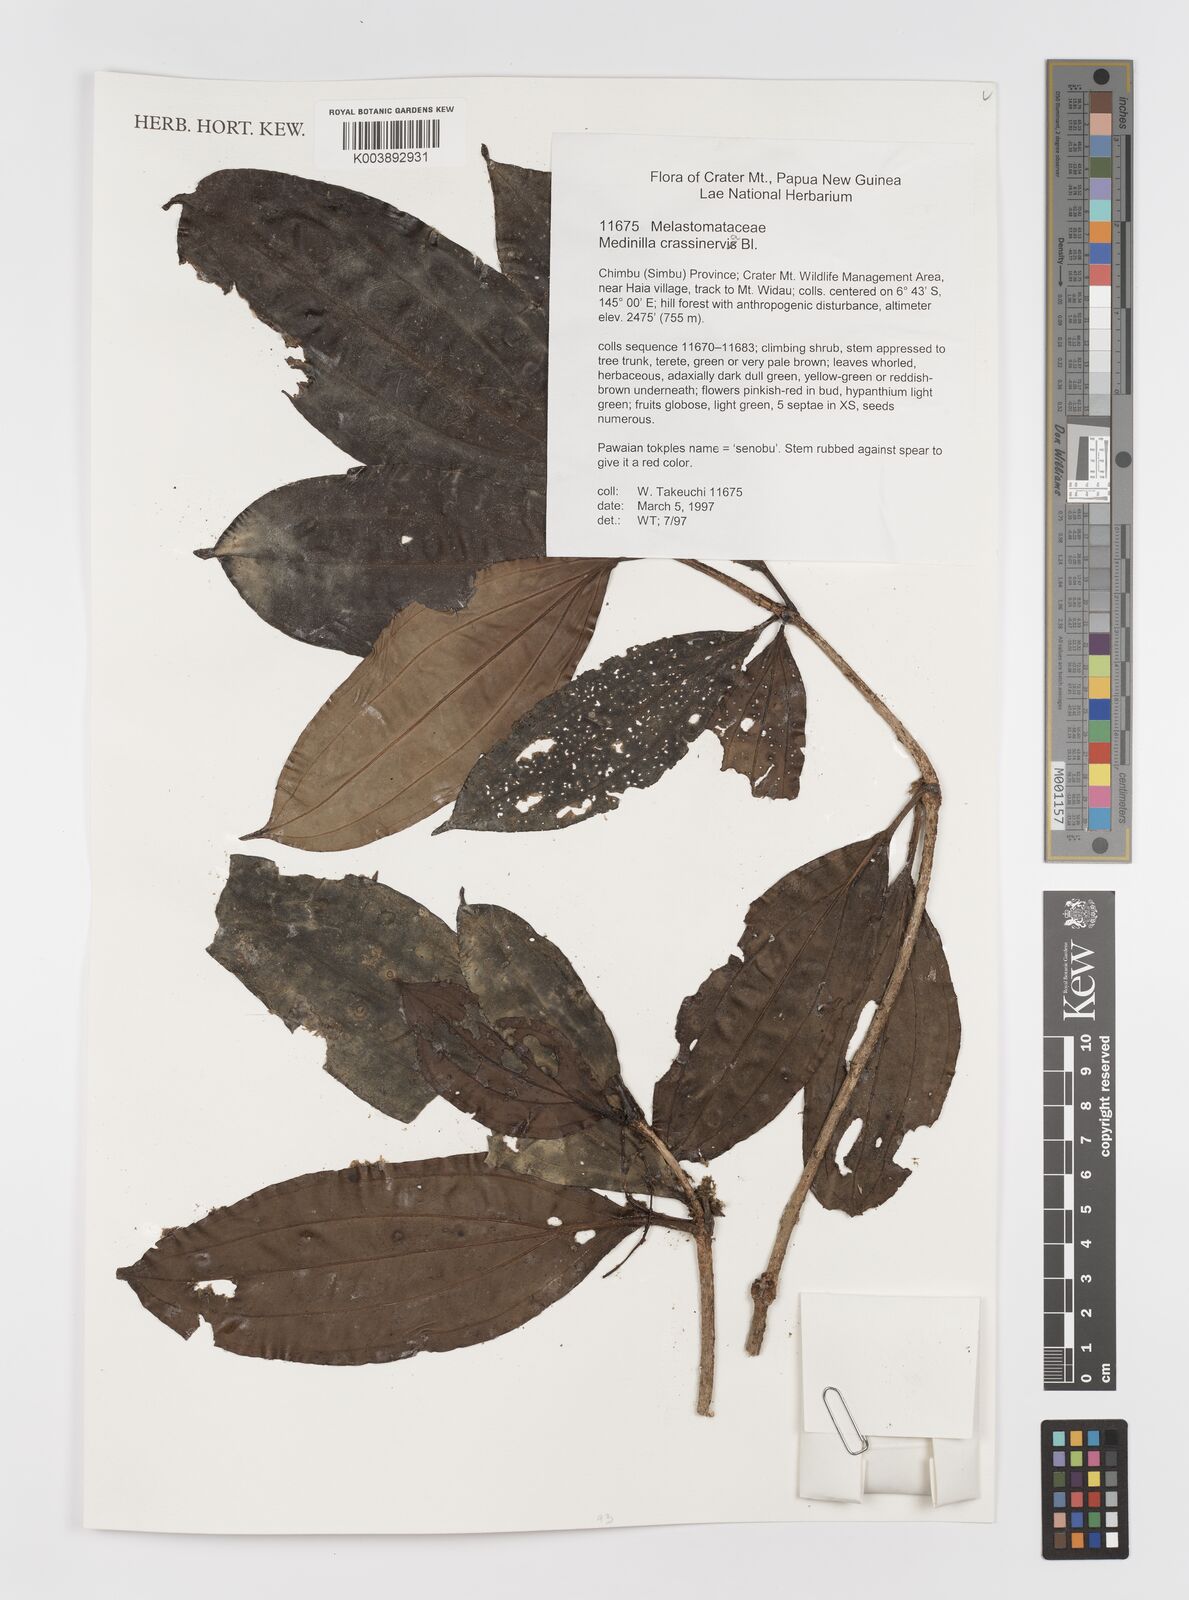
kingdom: Plantae
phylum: Tracheophyta
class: Magnoliopsida
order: Myrtales
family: Melastomataceae
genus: Medinilla
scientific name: Medinilla crassinervia
